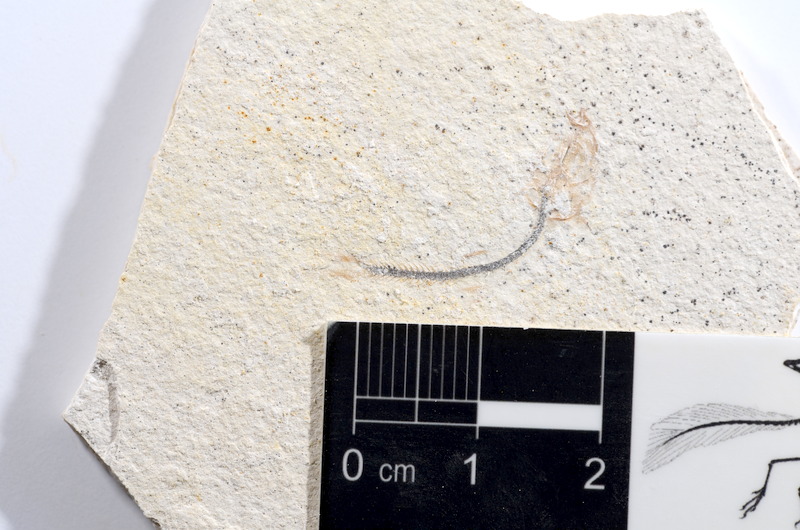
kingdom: Animalia
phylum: Chordata
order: Salmoniformes
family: Orthogonikleithridae
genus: Orthogonikleithrus
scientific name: Orthogonikleithrus hoelli
